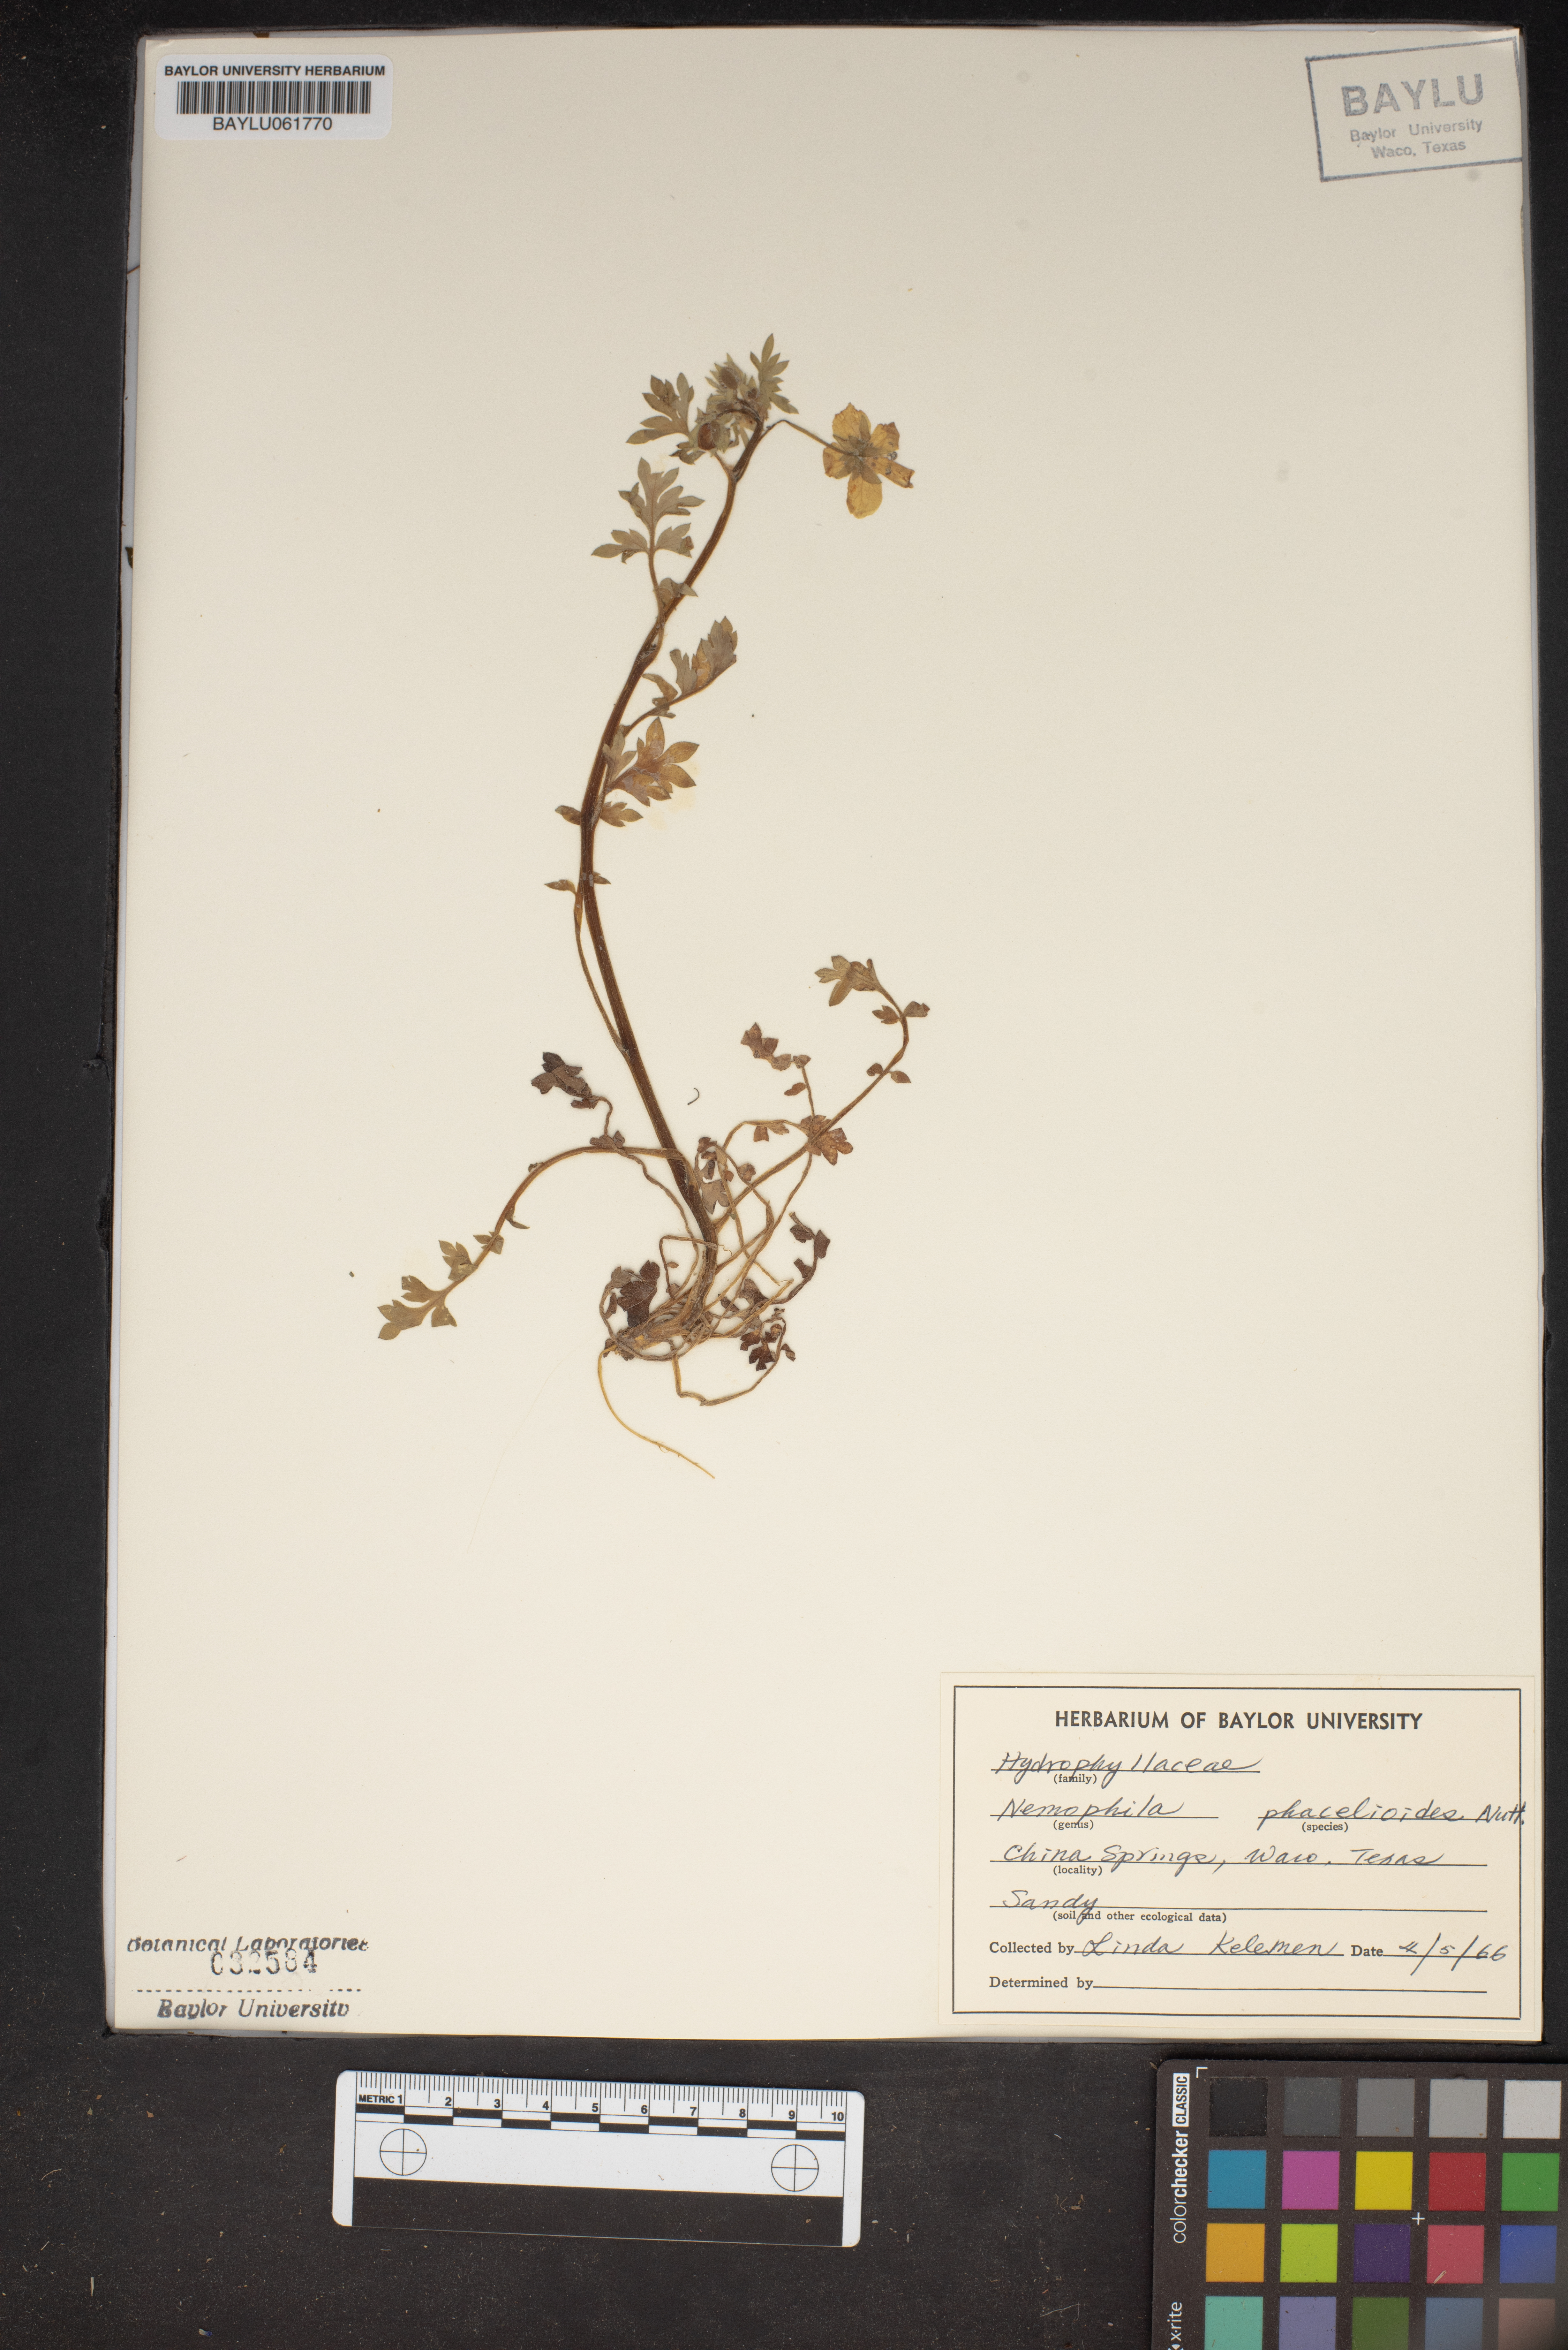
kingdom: Plantae
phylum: Tracheophyta
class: Magnoliopsida
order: Boraginales
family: Hydrophyllaceae
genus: Nemophila
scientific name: Nemophila phacelioides
